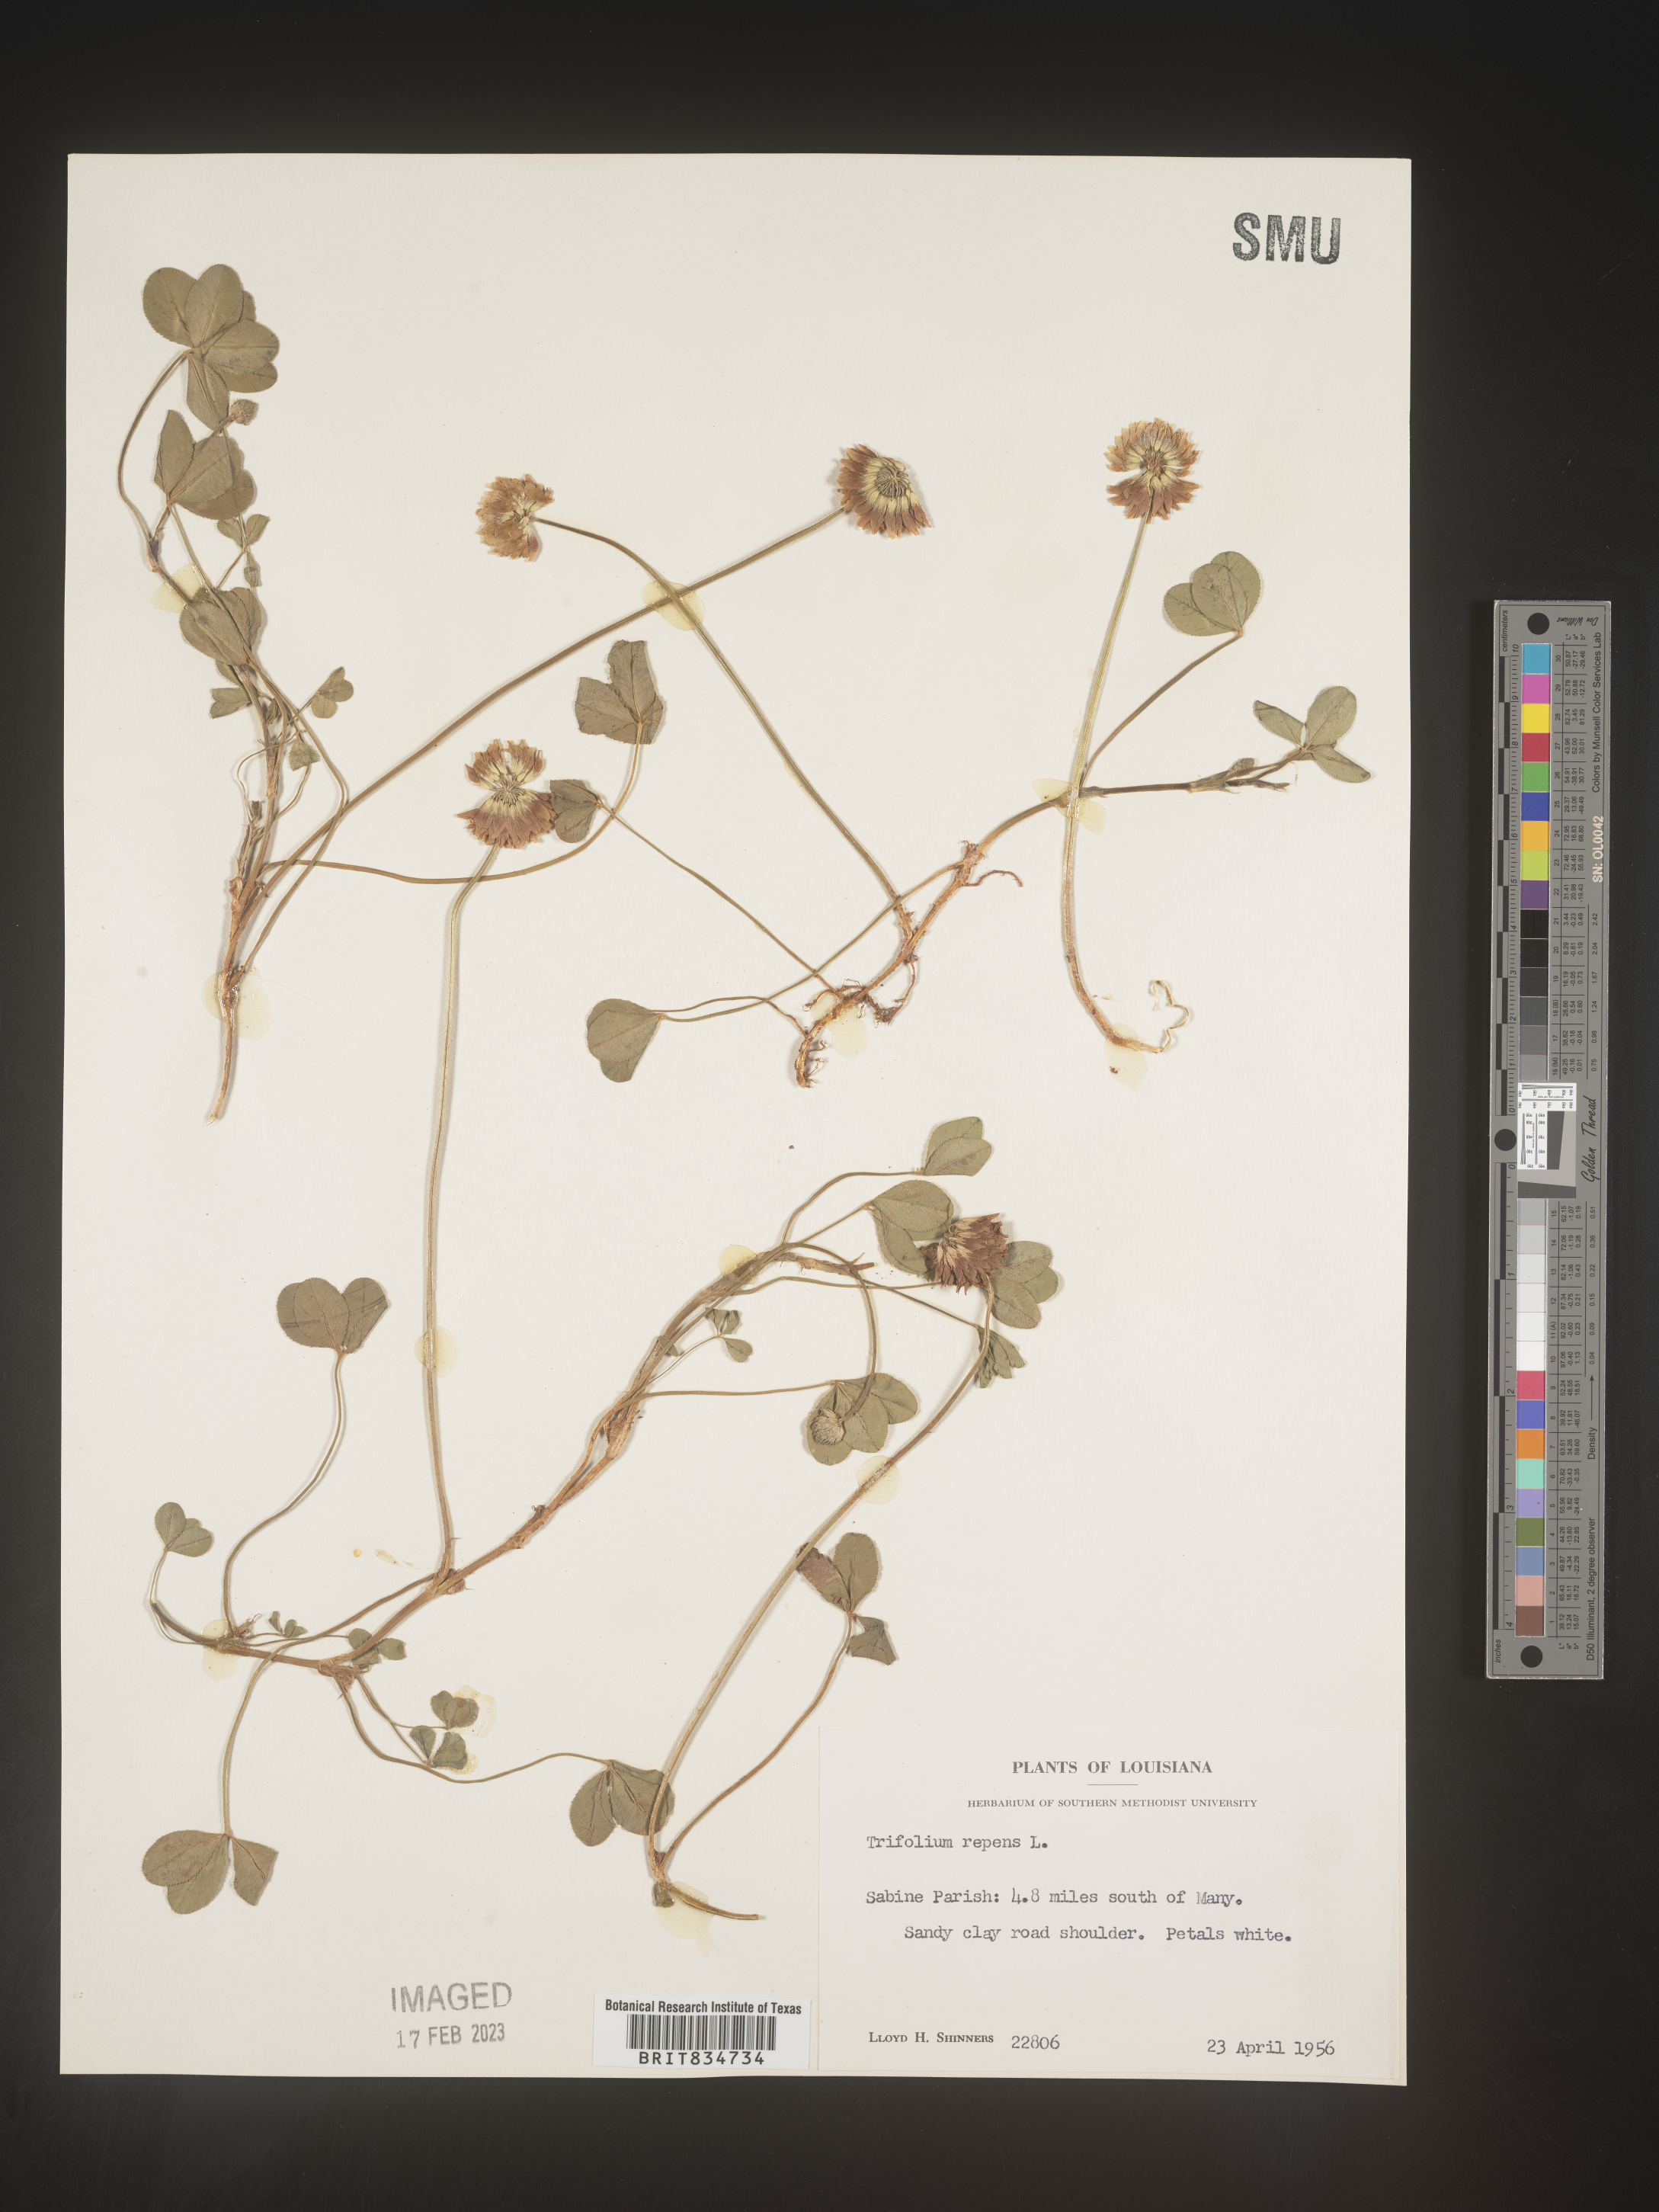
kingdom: Plantae
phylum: Tracheophyta
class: Magnoliopsida
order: Fabales
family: Fabaceae
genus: Trifolium
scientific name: Trifolium repens
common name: White clover
